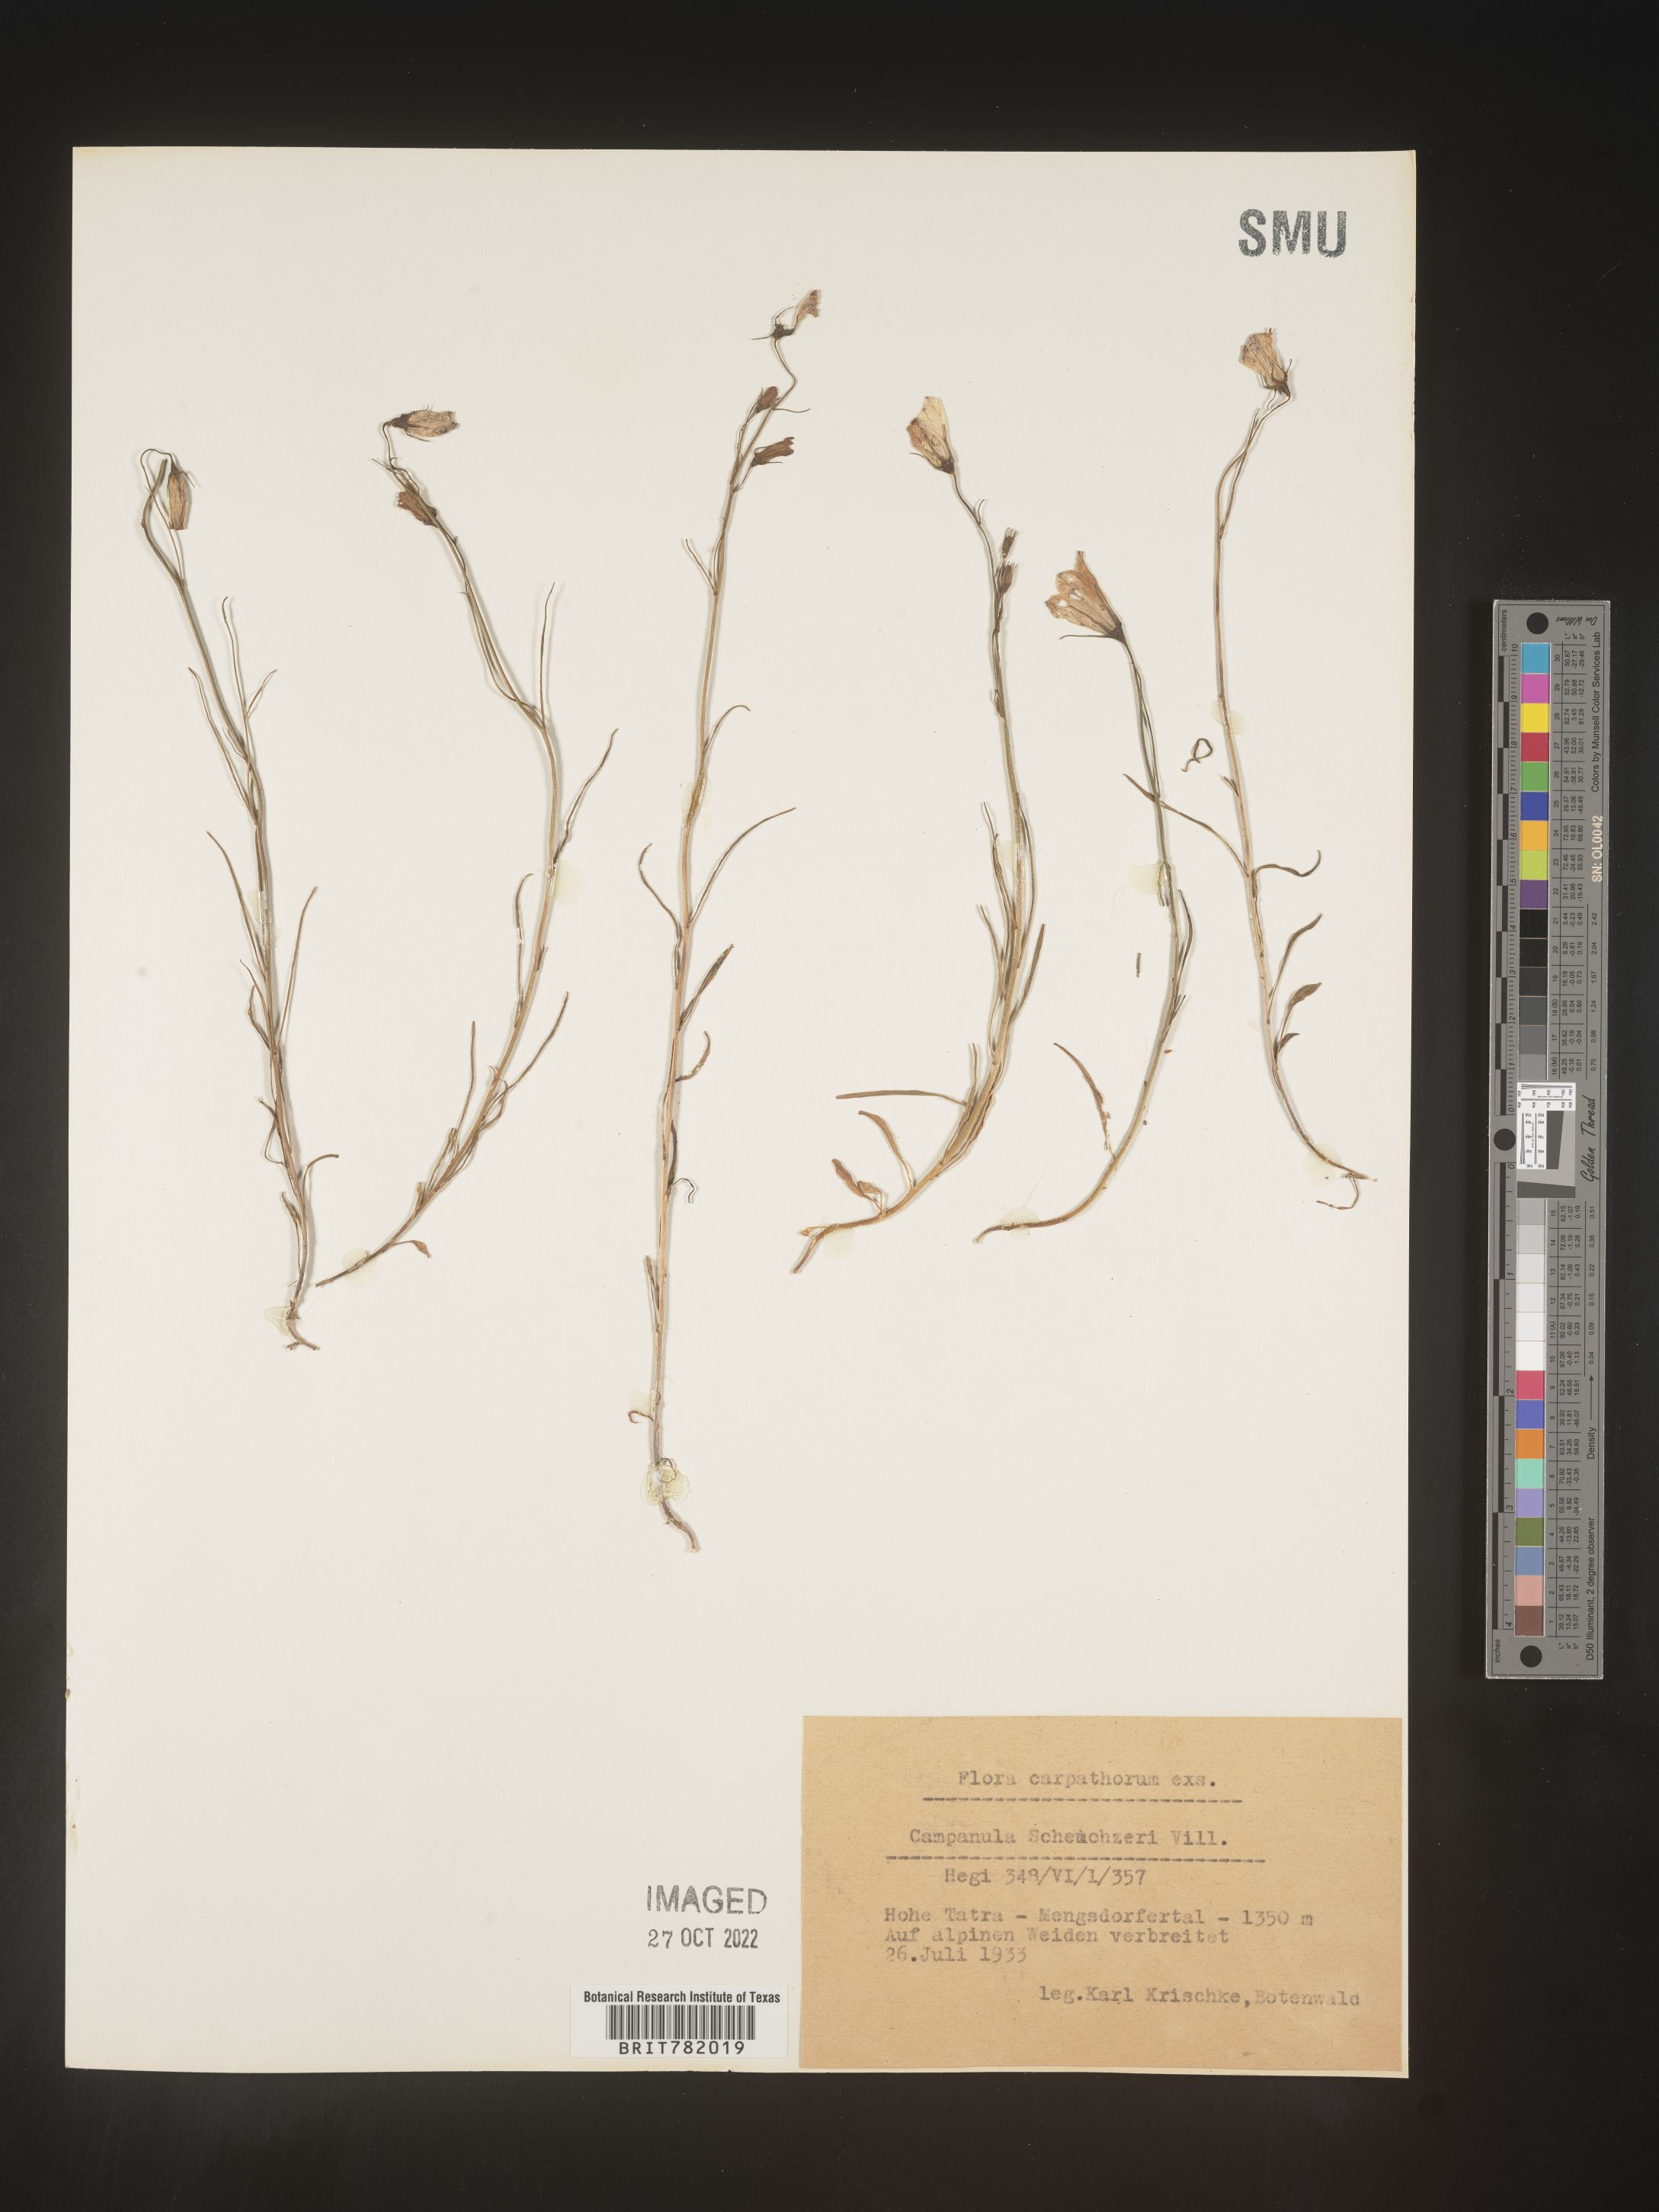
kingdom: Plantae
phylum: Tracheophyta
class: Magnoliopsida
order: Asterales
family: Campanulaceae
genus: Campanula
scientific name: Campanula
